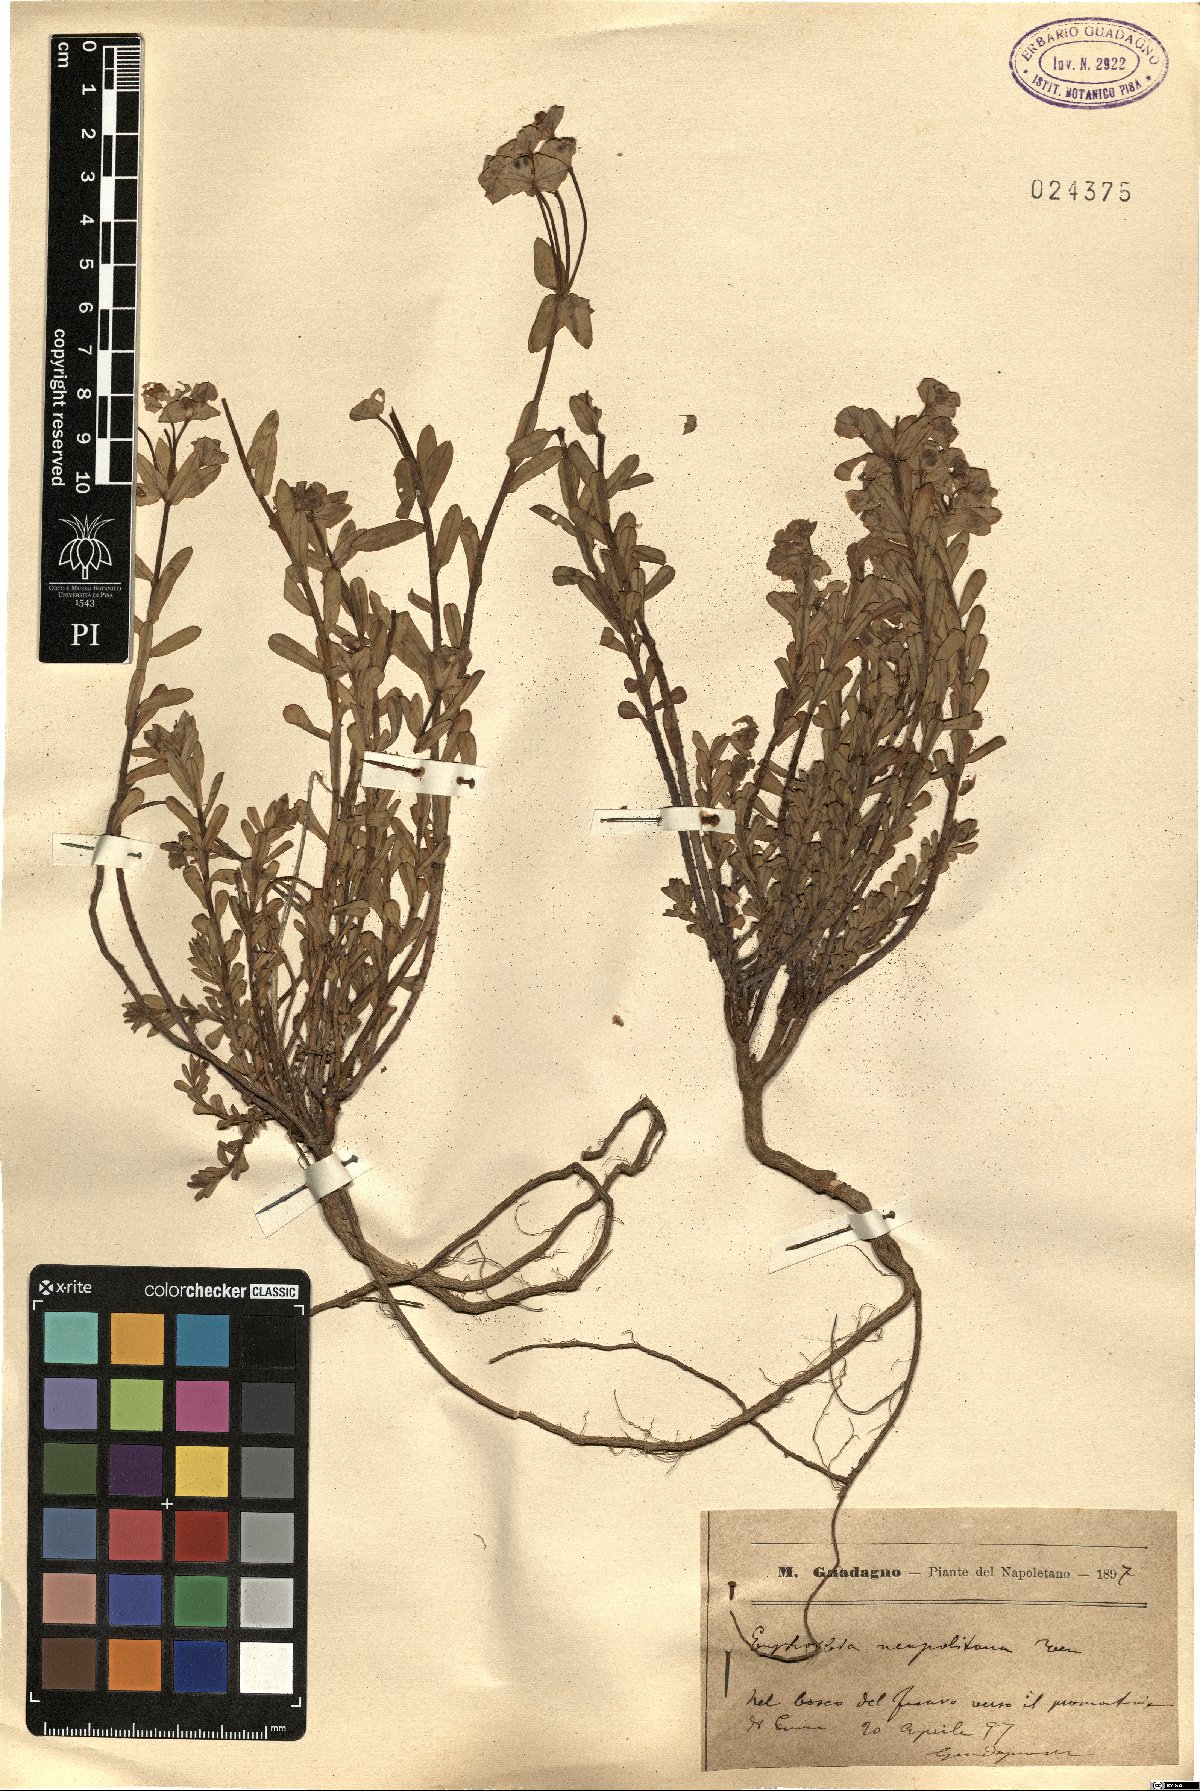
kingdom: Plantae
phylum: Tracheophyta
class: Magnoliopsida
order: Malpighiales
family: Euphorbiaceae
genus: Euphorbia
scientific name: Euphorbia terracina
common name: Geraldton carnation weed
